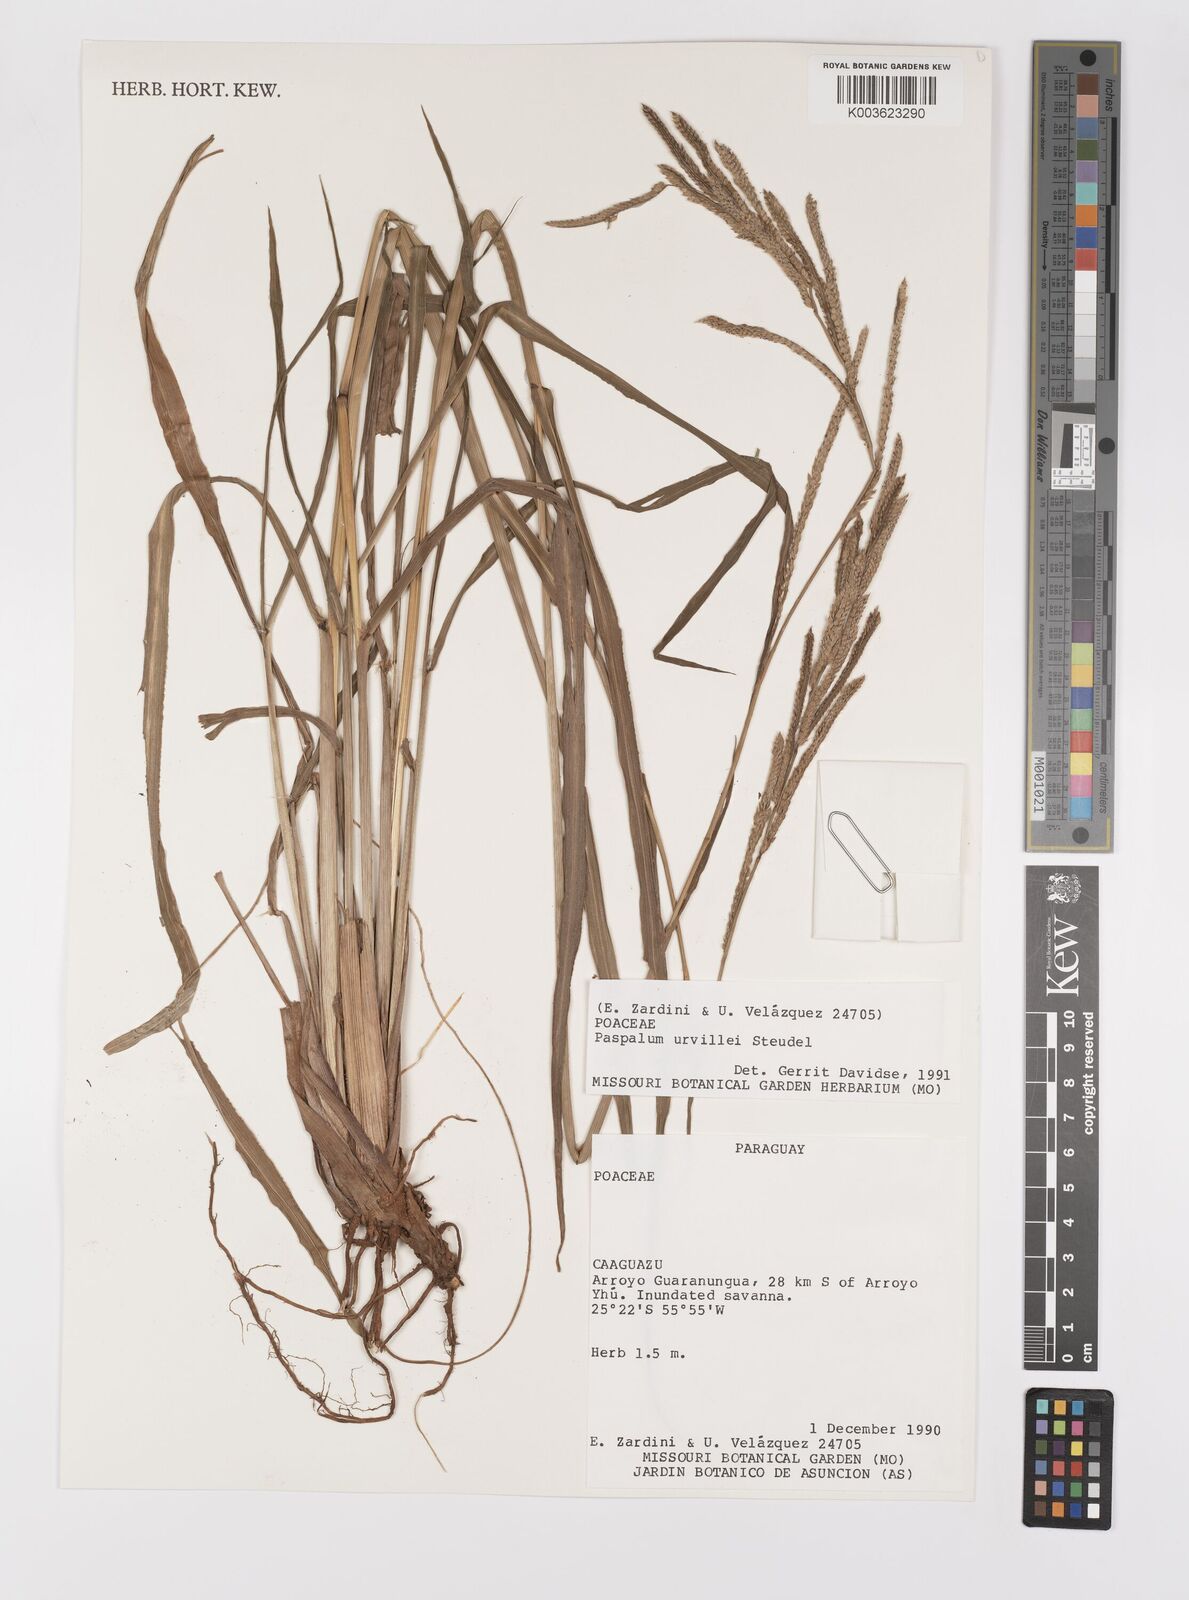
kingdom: Plantae
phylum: Tracheophyta
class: Liliopsida
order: Poales
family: Poaceae
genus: Paspalum
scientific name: Paspalum urvillei
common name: Vasey's grass
